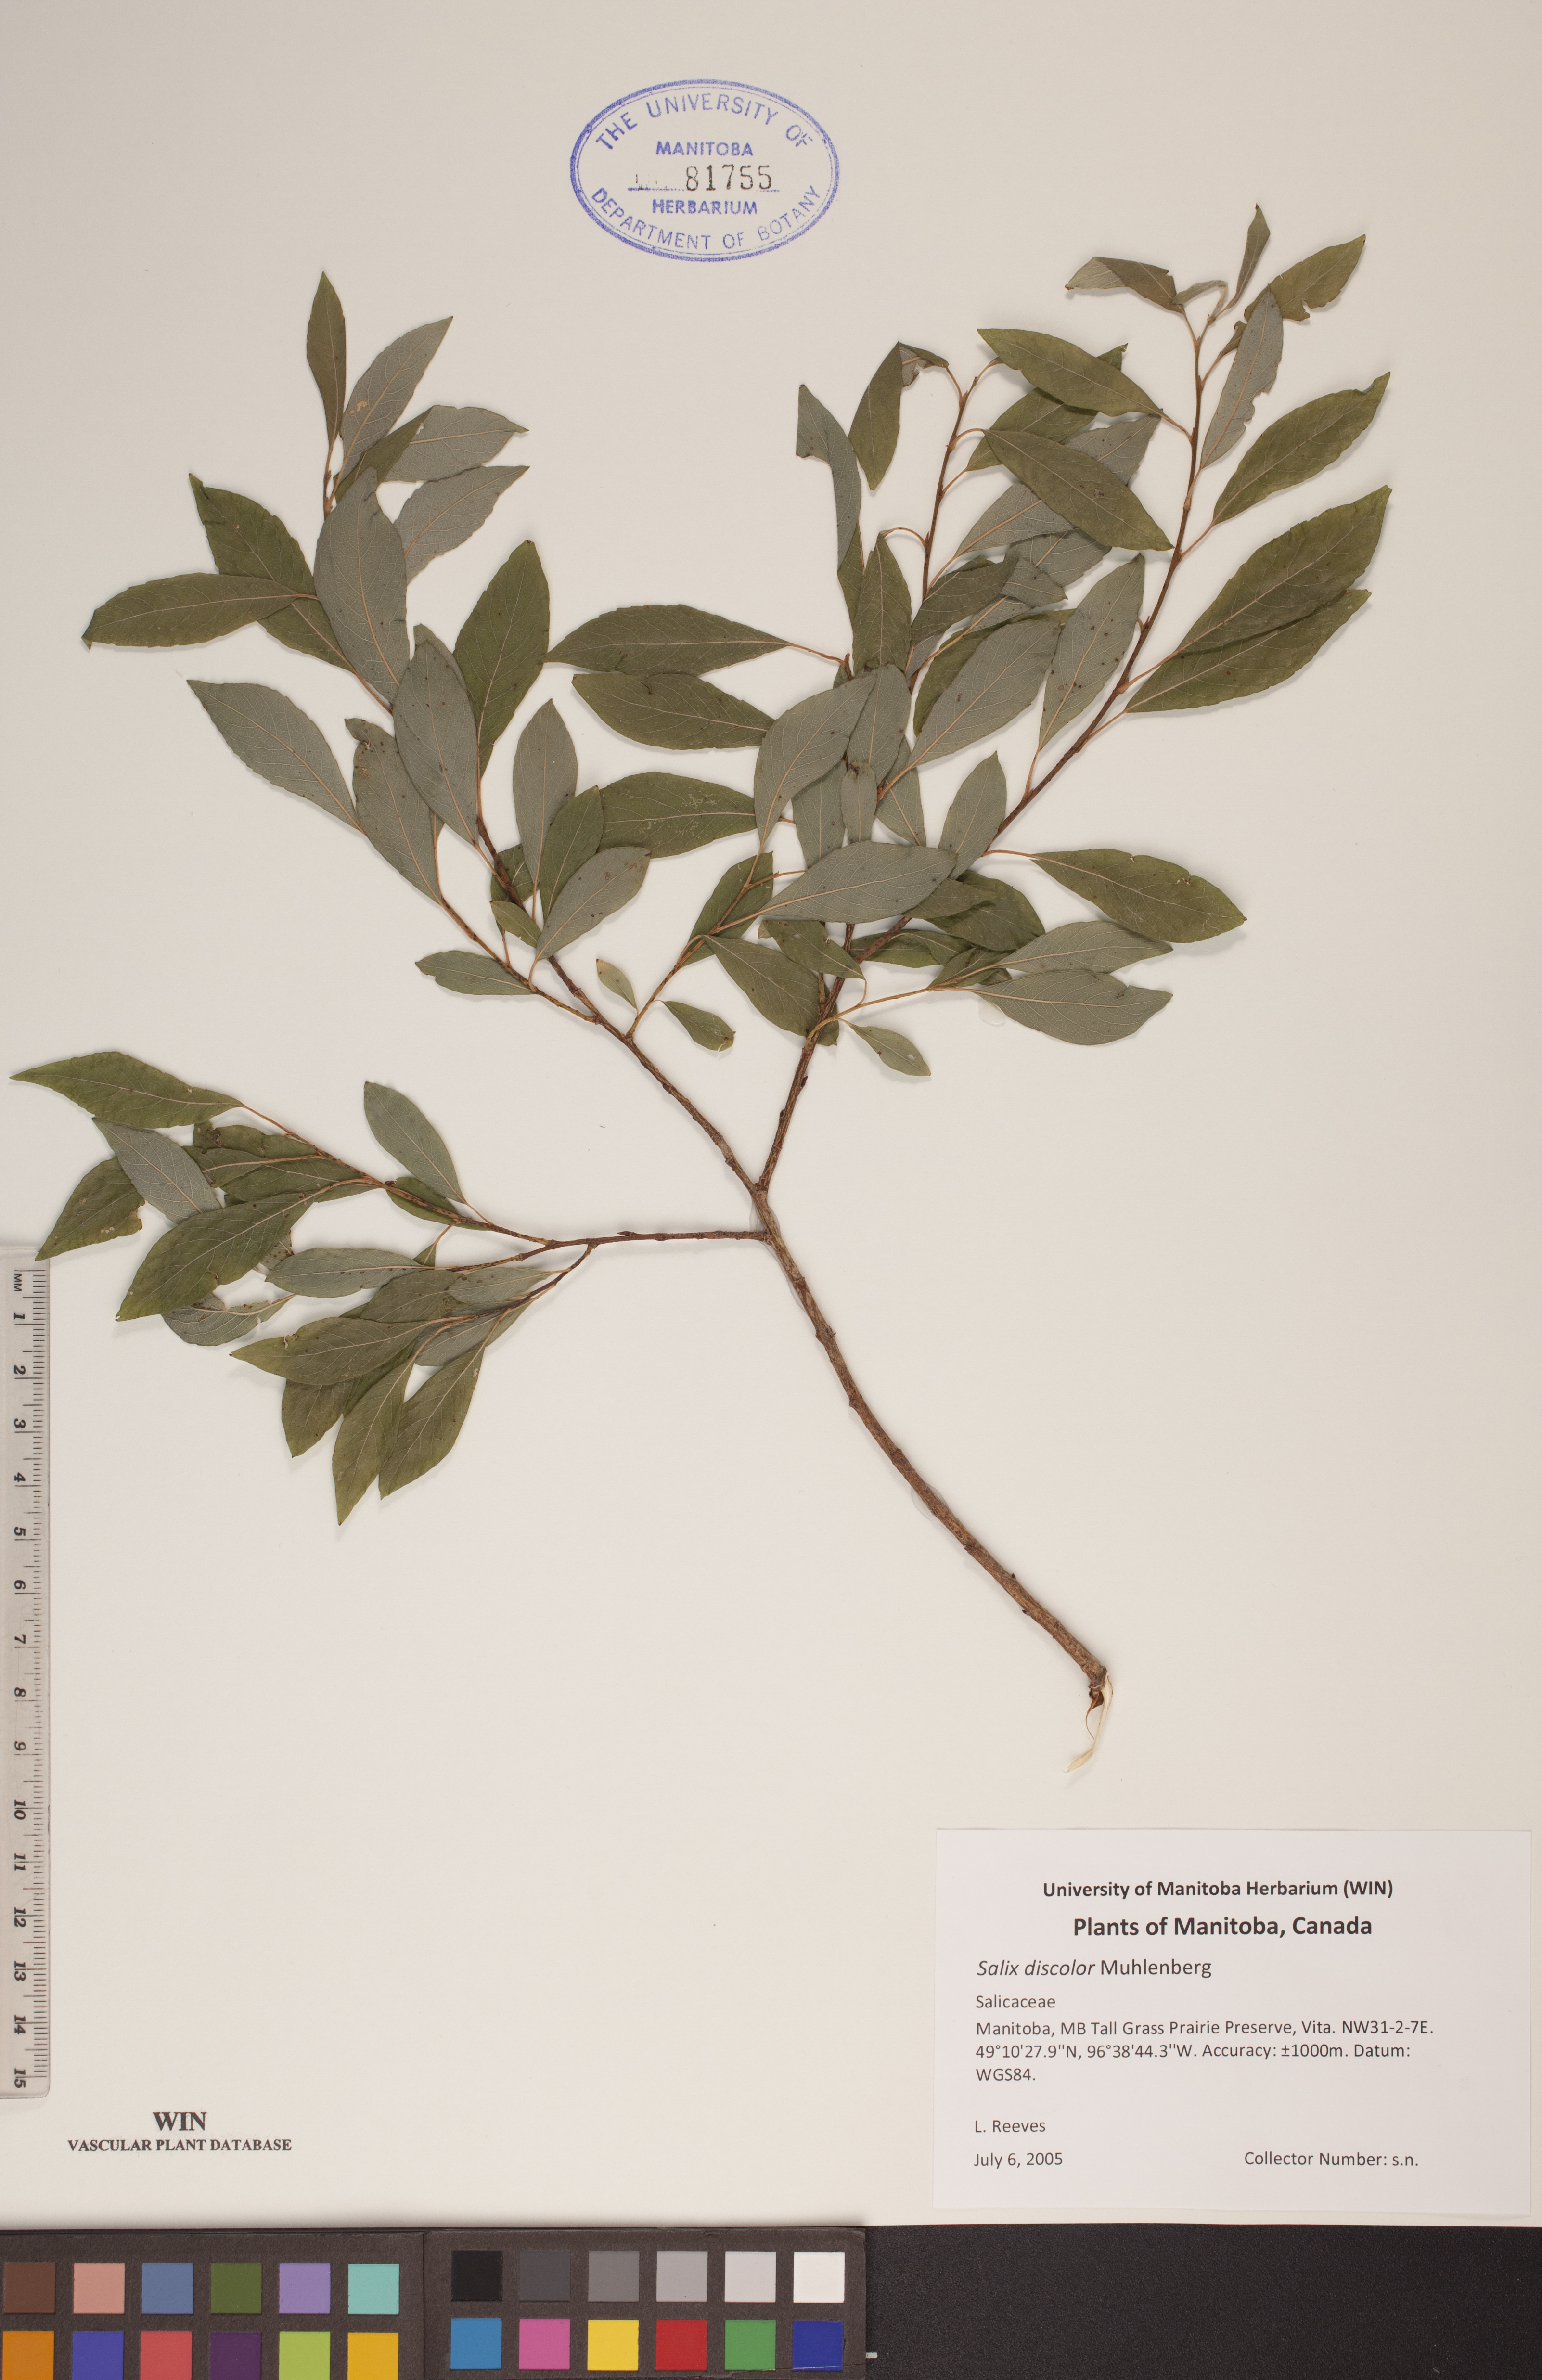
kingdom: Plantae
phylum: Tracheophyta
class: Magnoliopsida
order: Malpighiales
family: Salicaceae
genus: Salix
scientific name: Salix discolor
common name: Glaucous willow
